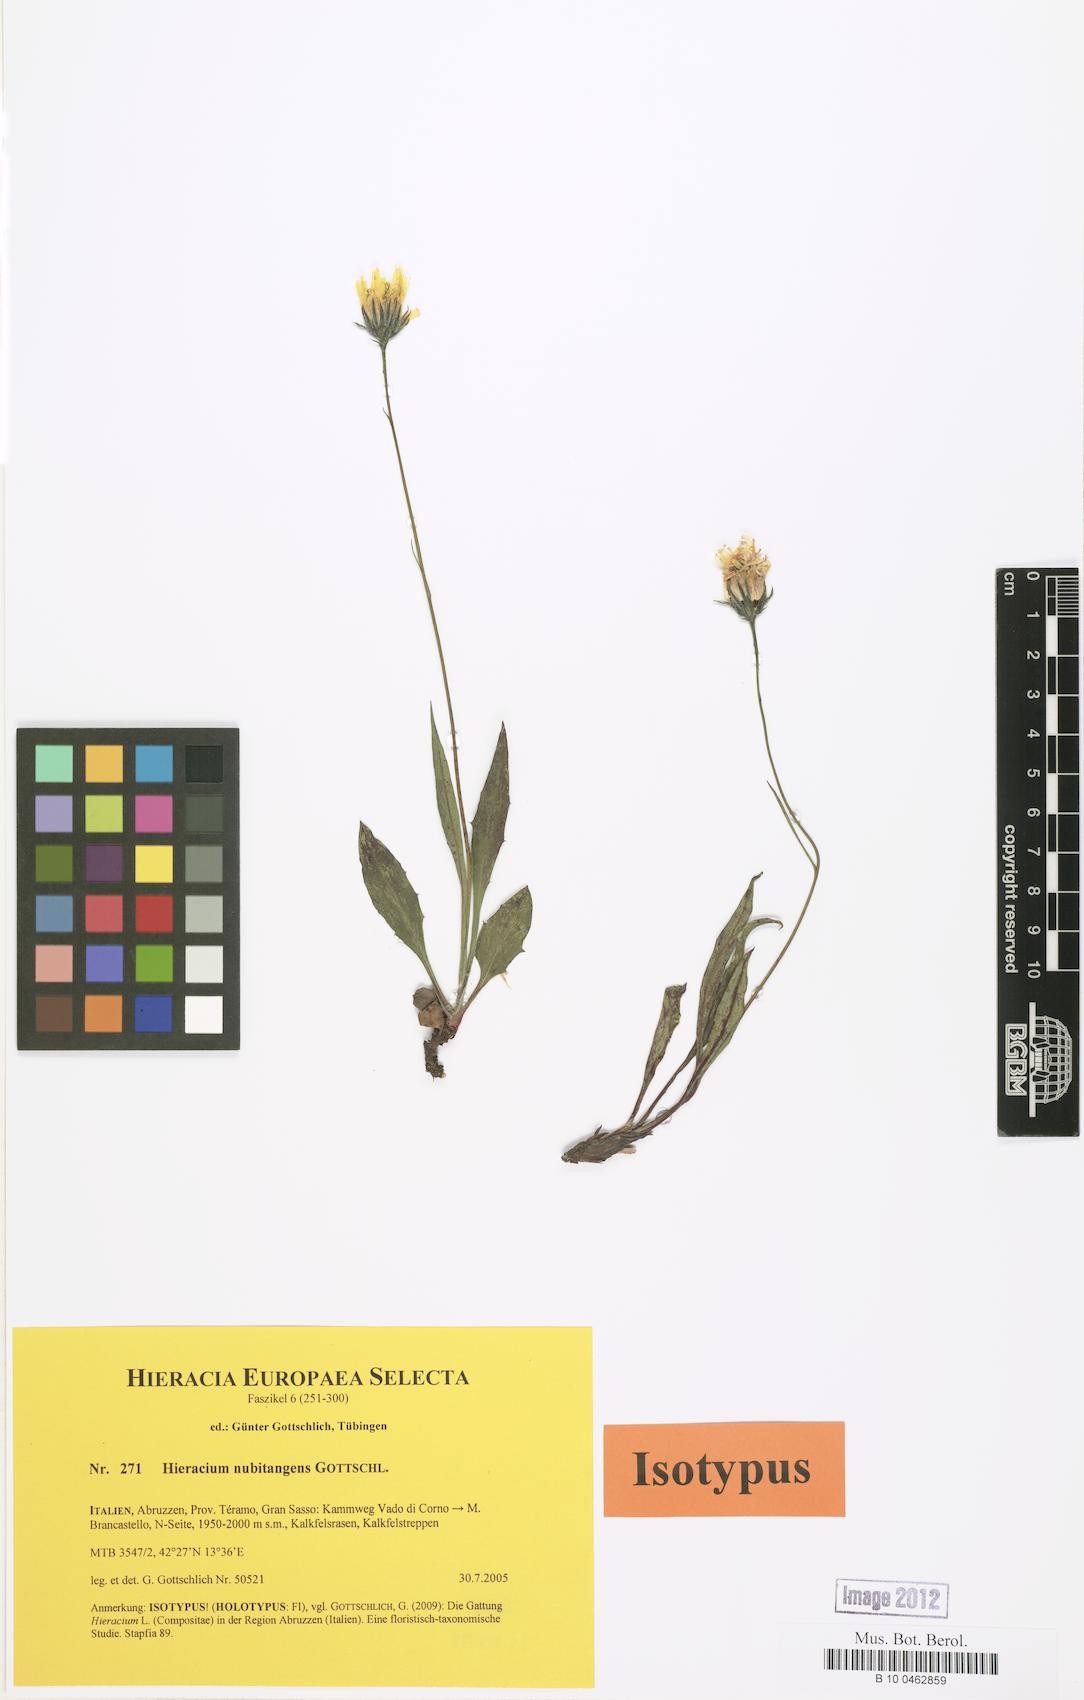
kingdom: Plantae
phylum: Tracheophyta
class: Magnoliopsida
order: Asterales
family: Asteraceae
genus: Hieracium
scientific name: Hieracium nubitangens
